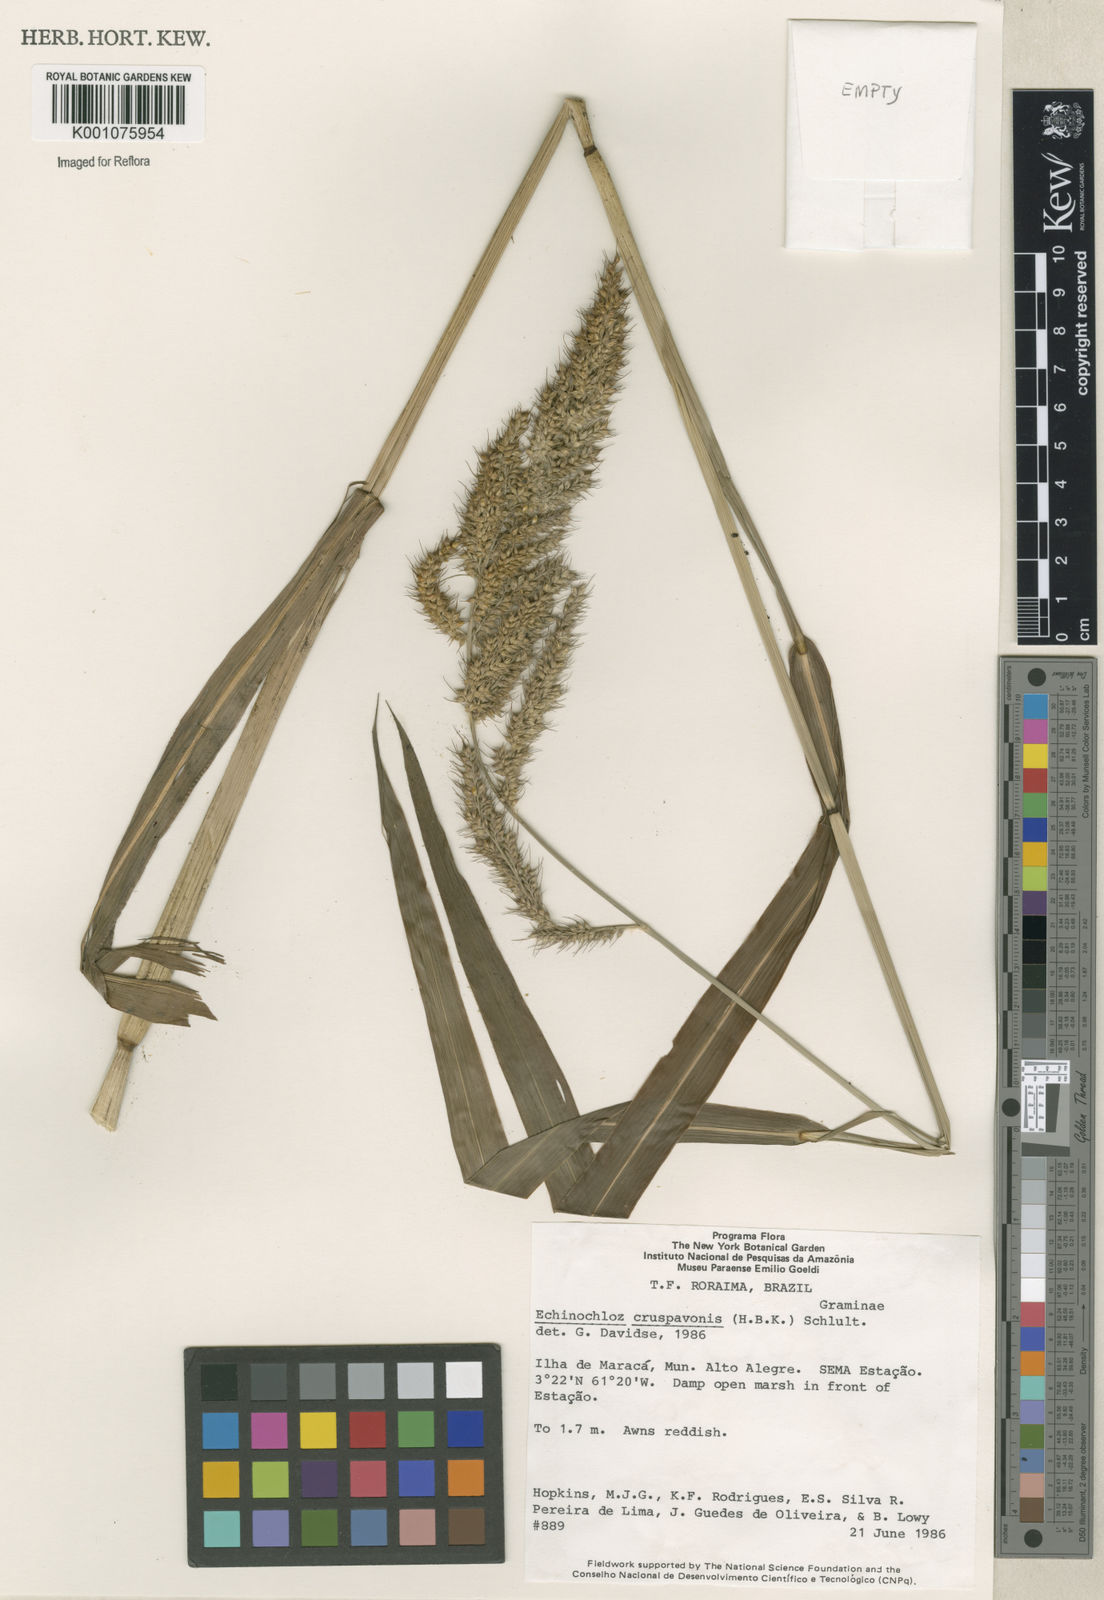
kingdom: Plantae
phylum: Tracheophyta
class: Liliopsida
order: Poales
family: Poaceae
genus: Echinochloa
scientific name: Echinochloa crus-pavonis
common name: Gulf cockspur grass
